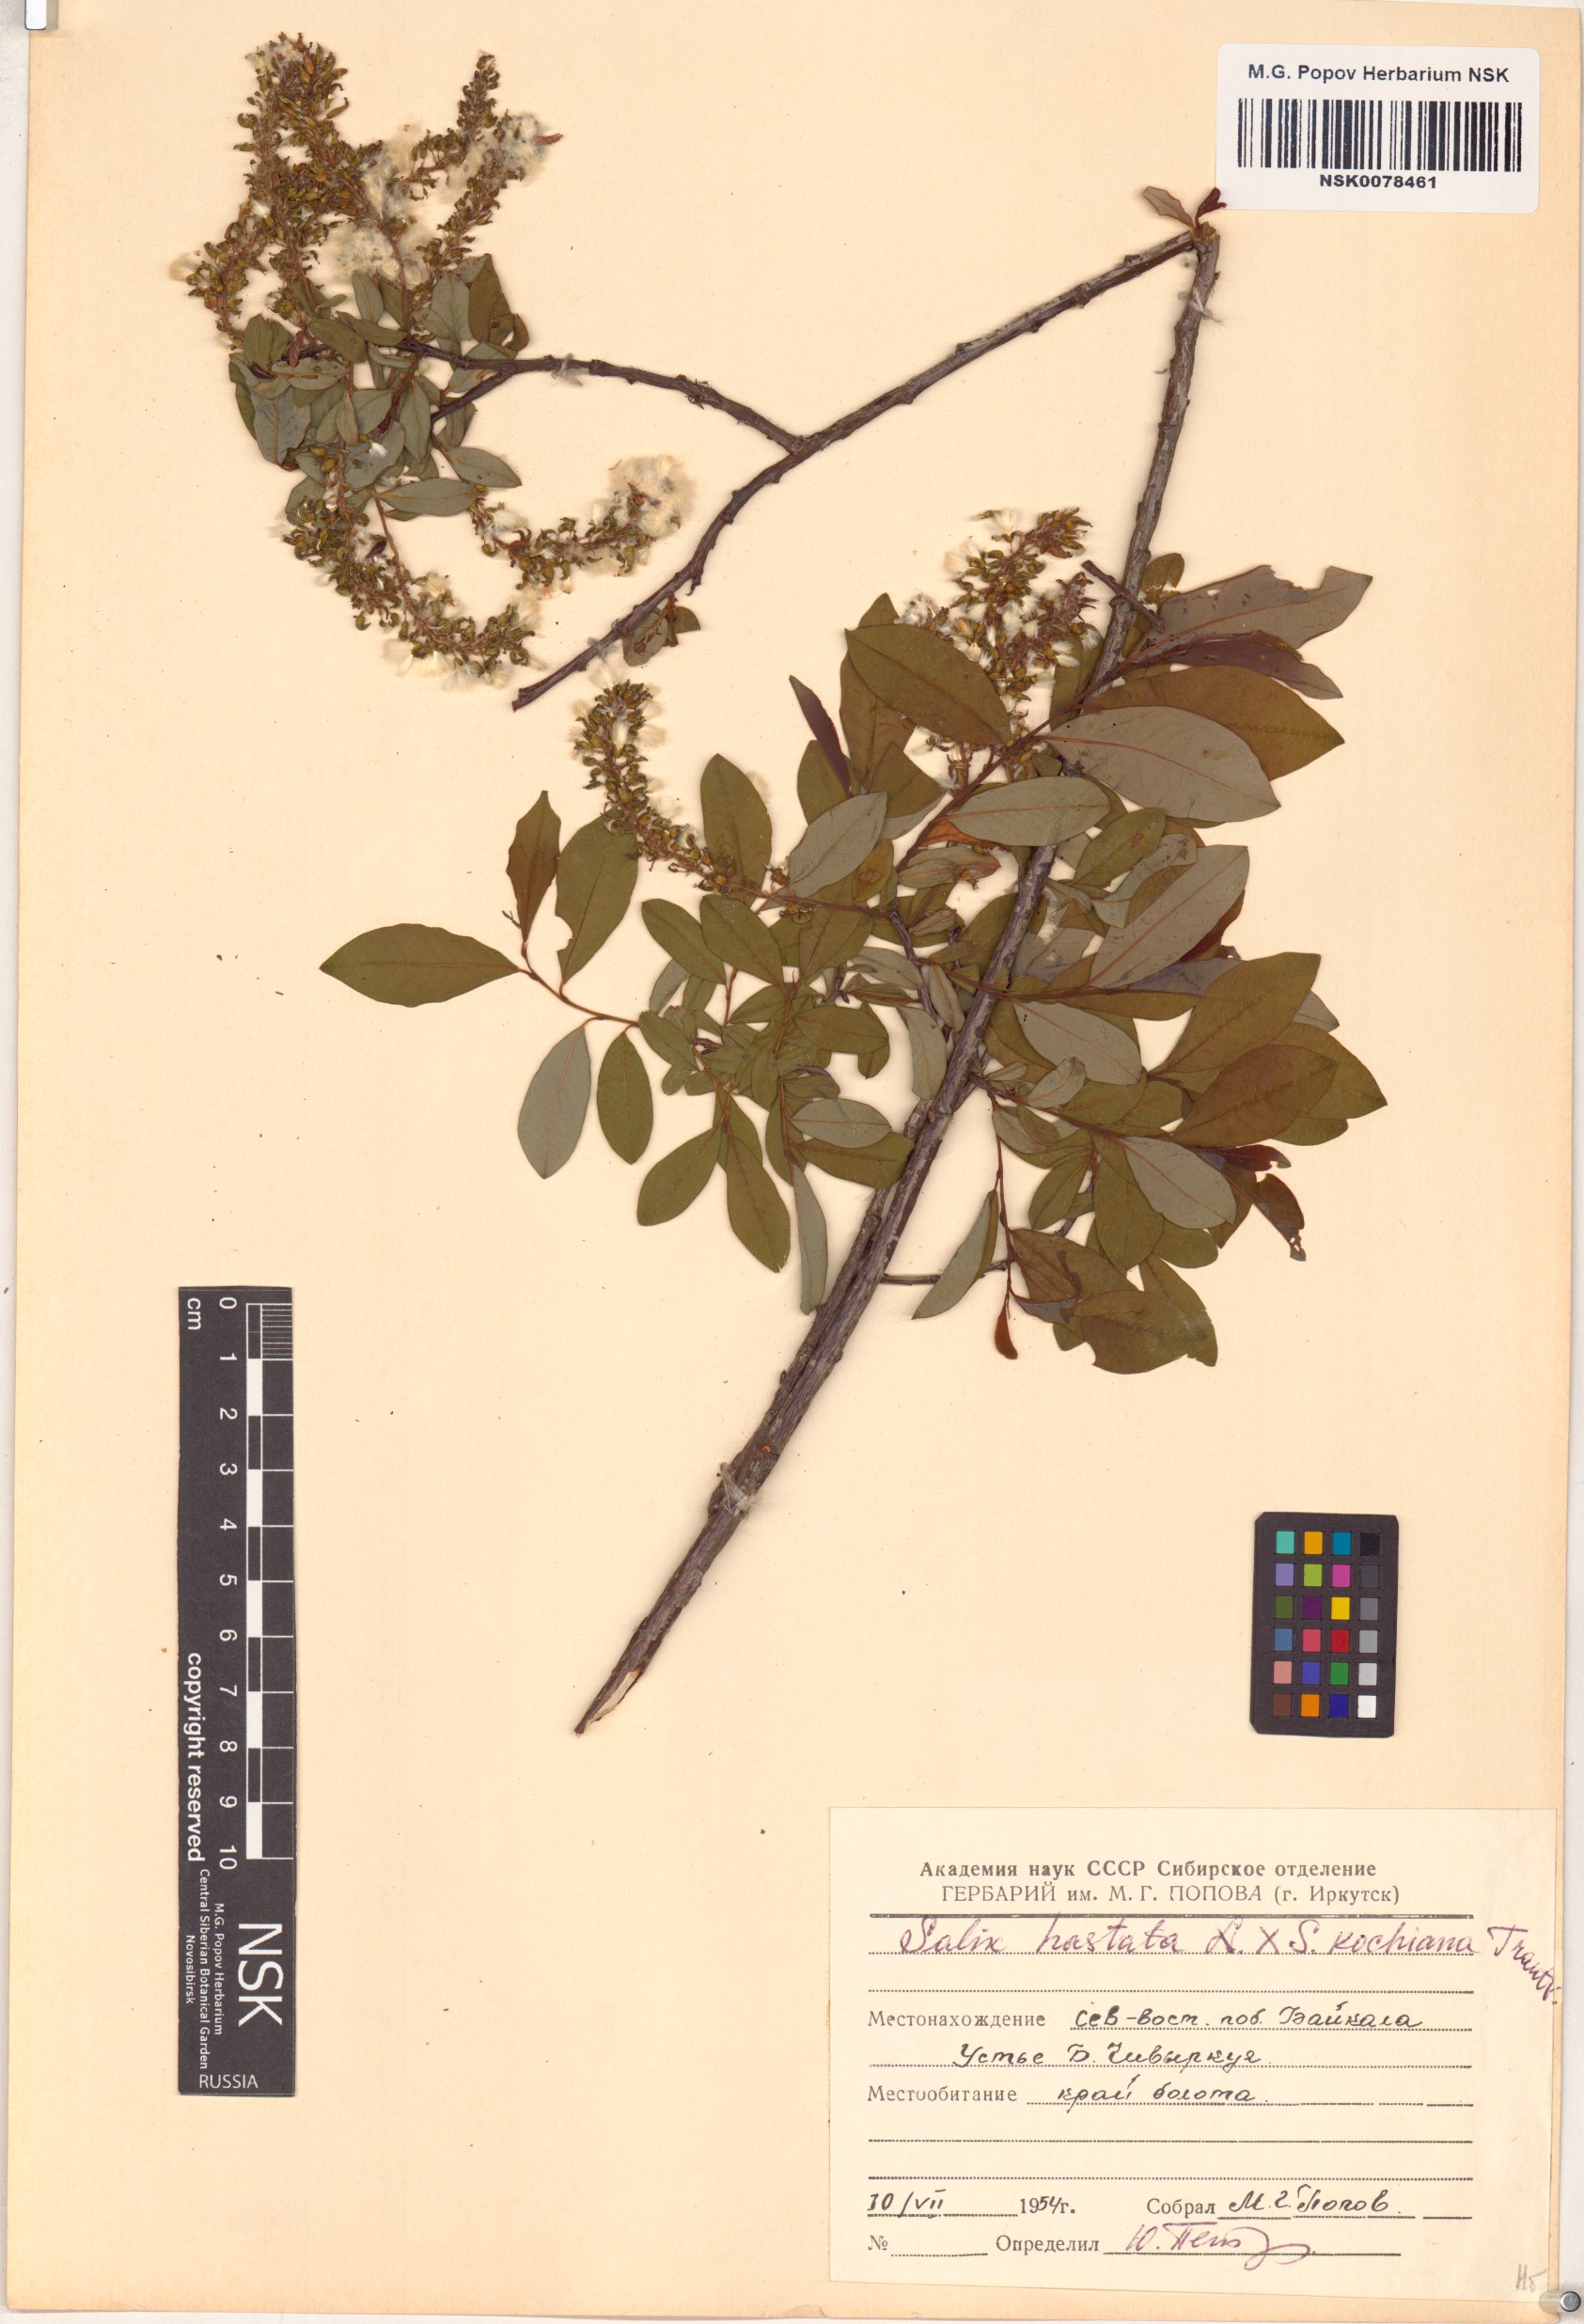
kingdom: Plantae
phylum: Tracheophyta
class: Magnoliopsida
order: Malpighiales
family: Salicaceae
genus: Salix
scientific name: Salix
